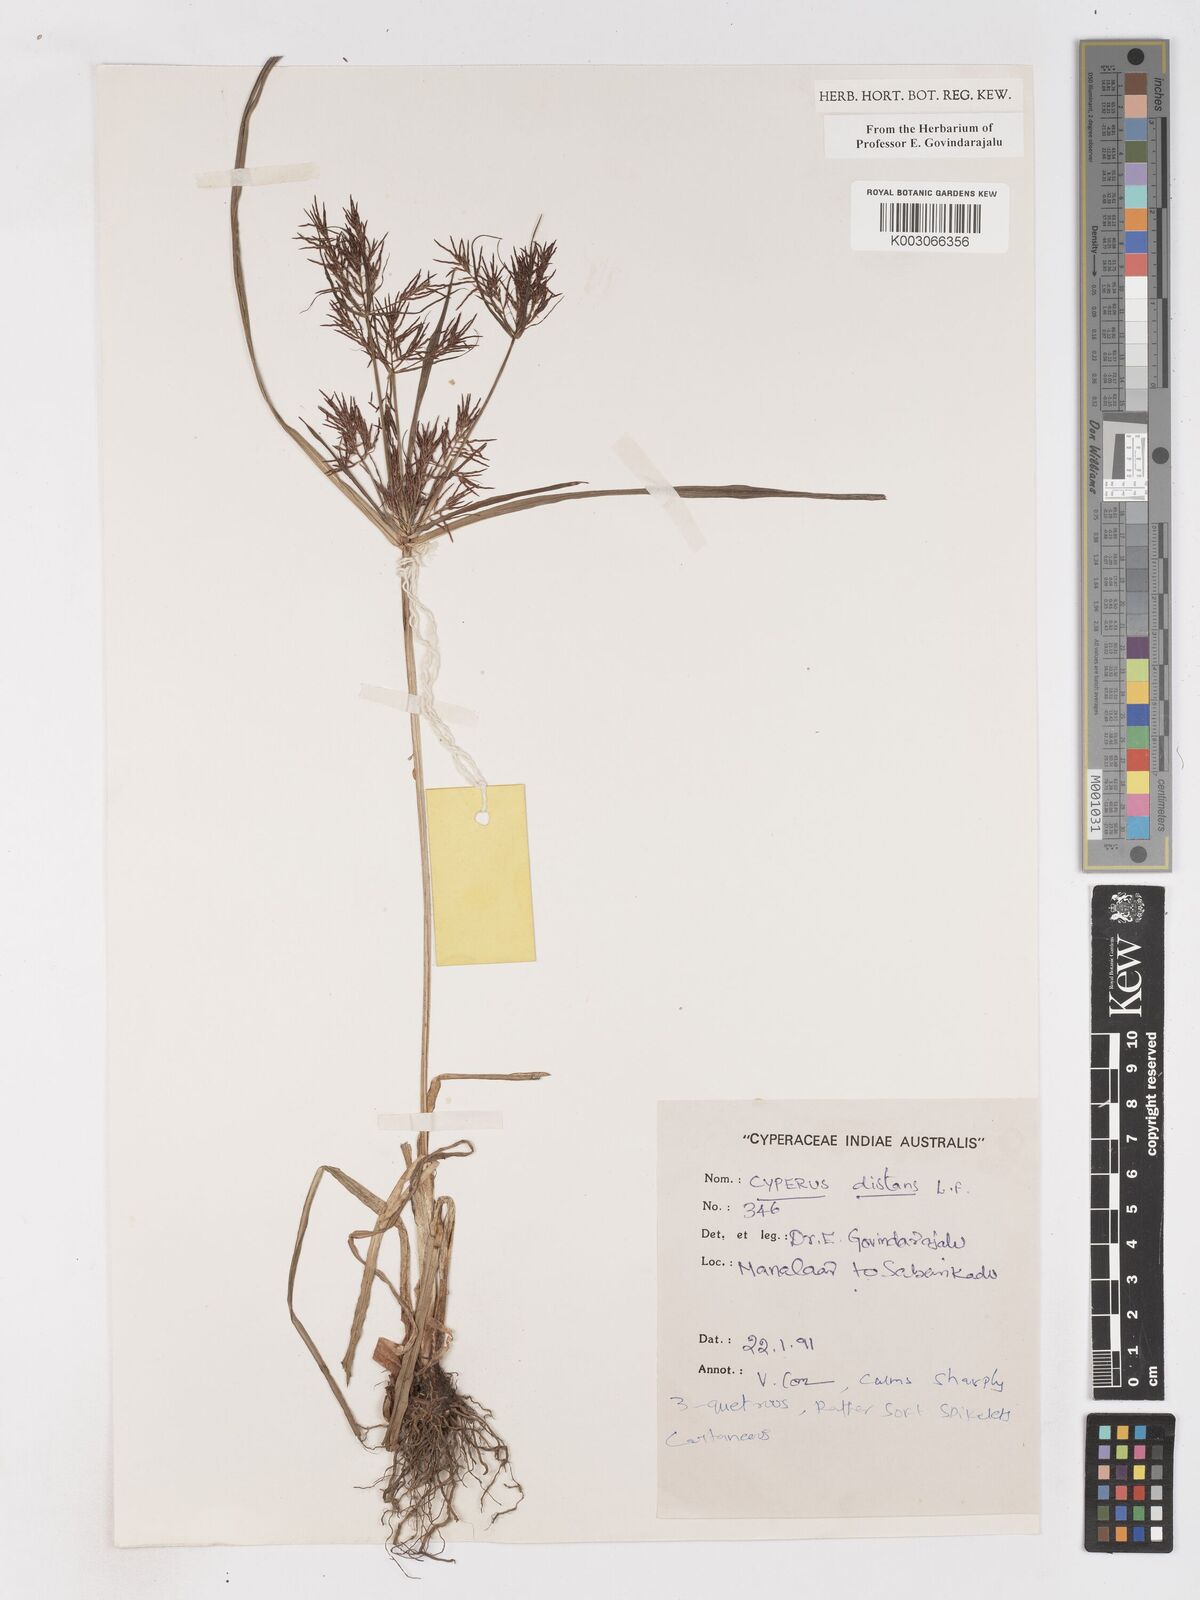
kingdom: Plantae
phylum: Tracheophyta
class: Liliopsida
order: Poales
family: Cyperaceae
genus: Cyperus
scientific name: Cyperus distans
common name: Slender cyperus
